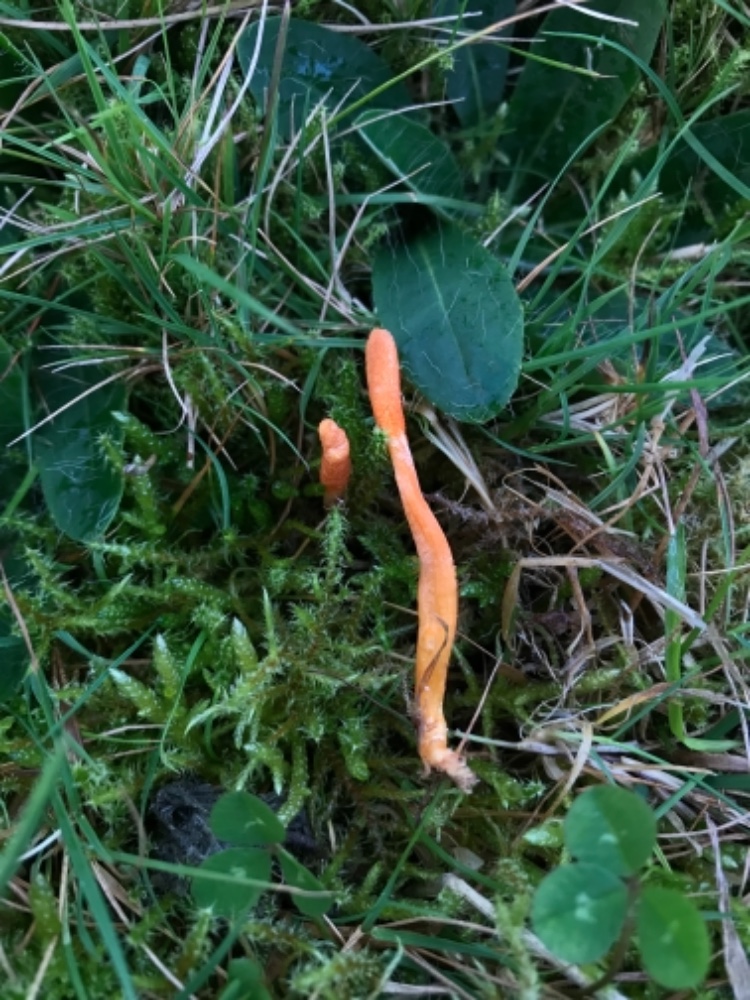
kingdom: Fungi
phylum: Ascomycota
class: Sordariomycetes
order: Hypocreales
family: Cordycipitaceae
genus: Cordyceps
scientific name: Cordyceps militaris
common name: puppe-snyltekølle
